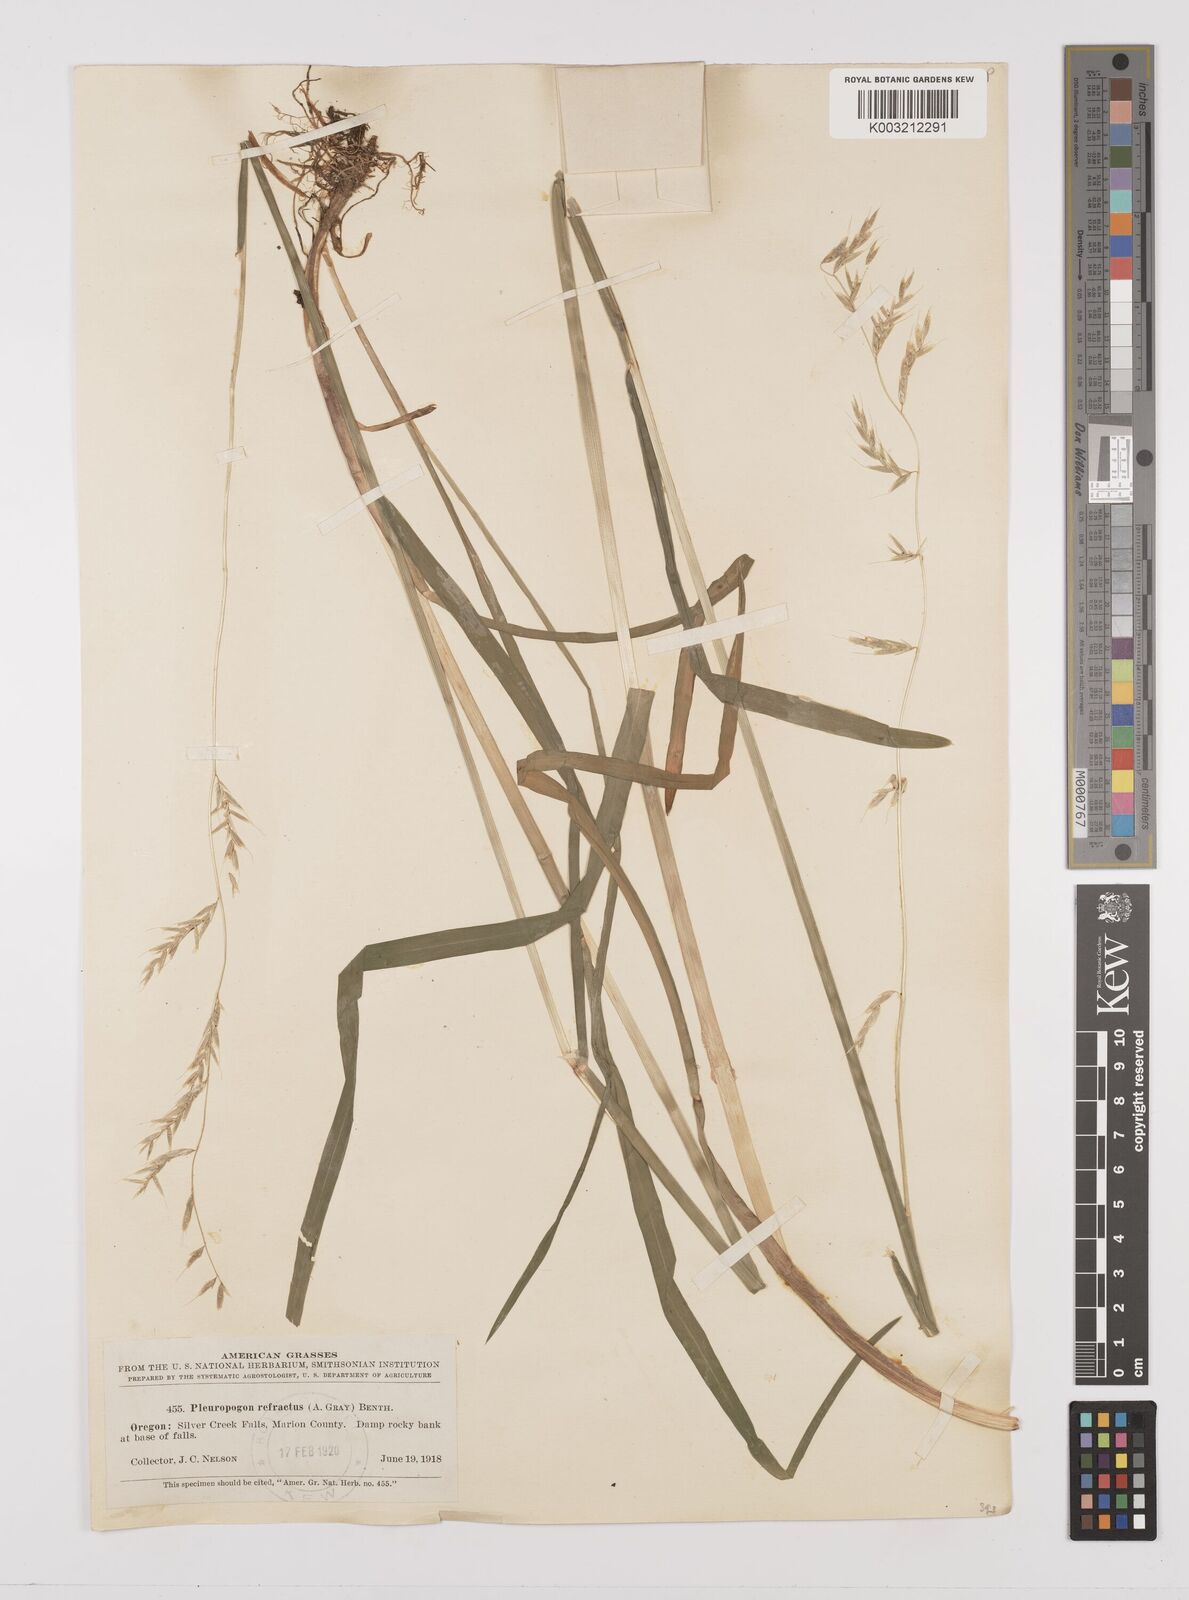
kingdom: Plantae
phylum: Tracheophyta
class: Liliopsida
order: Poales
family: Poaceae
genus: Pleuropogon
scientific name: Pleuropogon refractus
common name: Nodding false semaphoregrass
